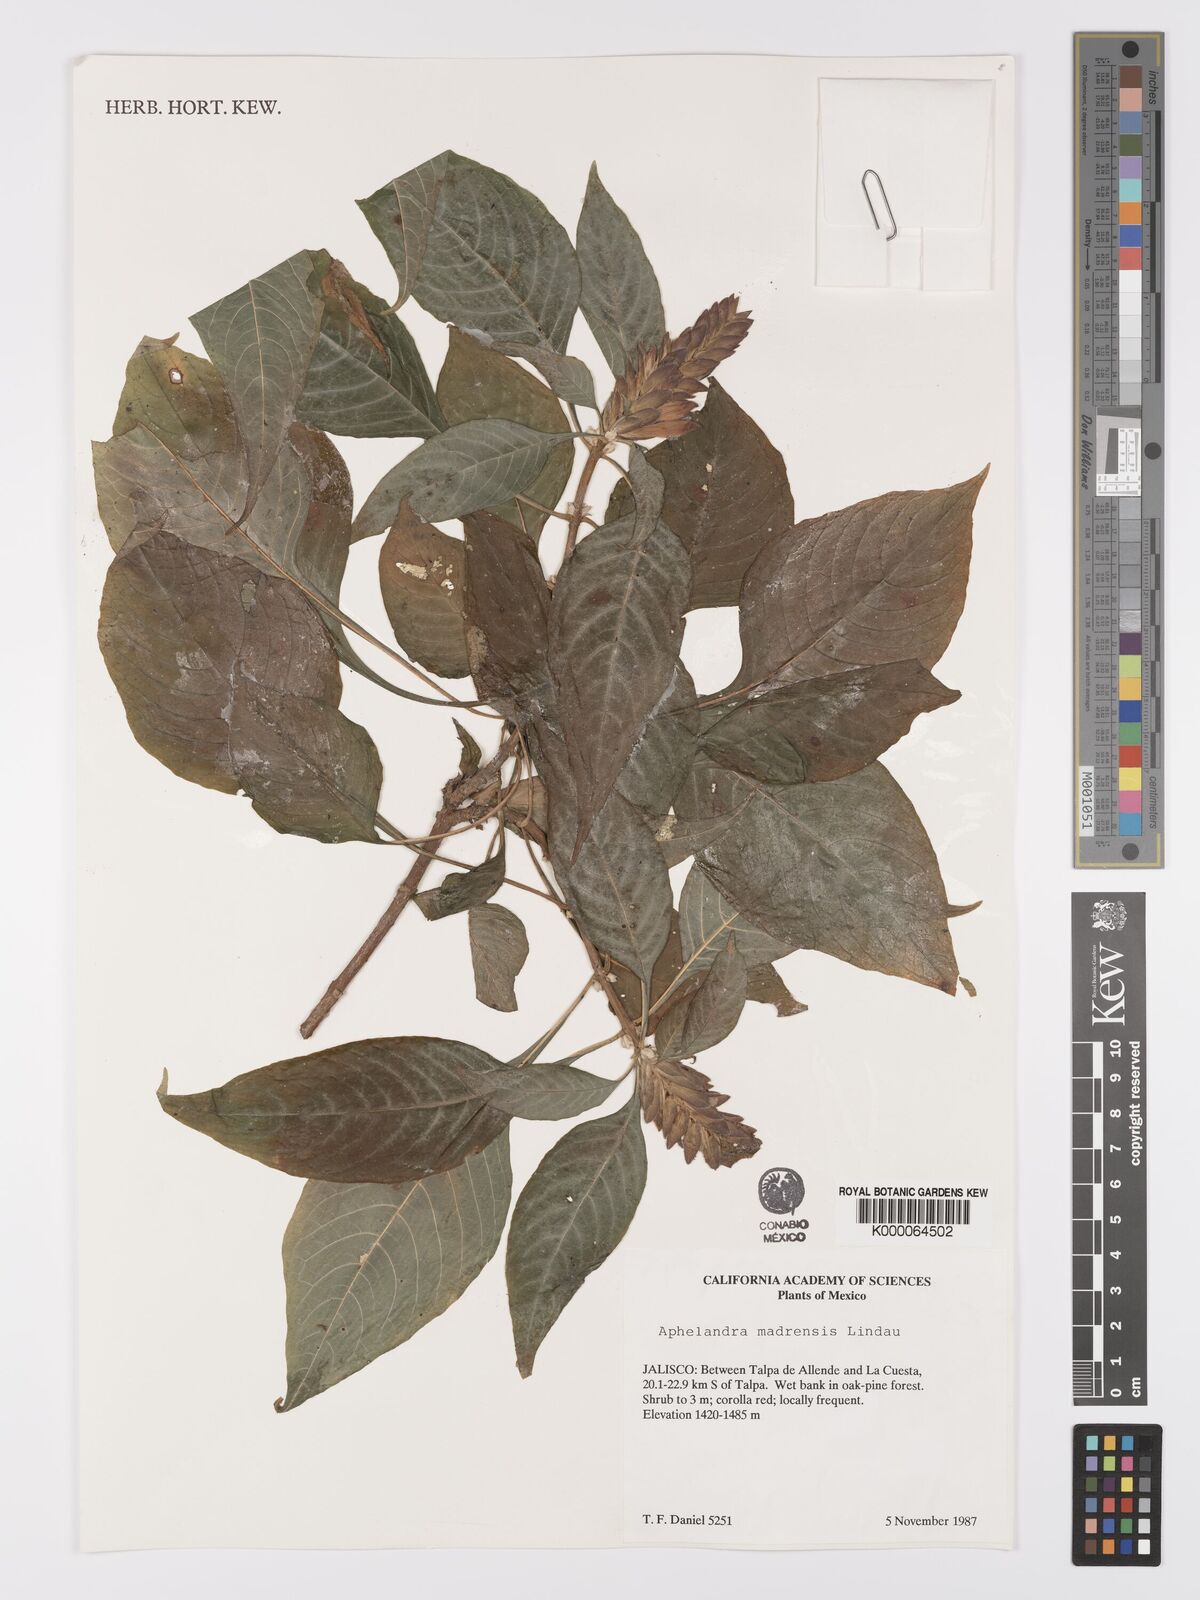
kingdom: Plantae
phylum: Tracheophyta
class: Magnoliopsida
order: Lamiales
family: Acanthaceae
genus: Aphelandra
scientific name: Aphelandra madrensis
